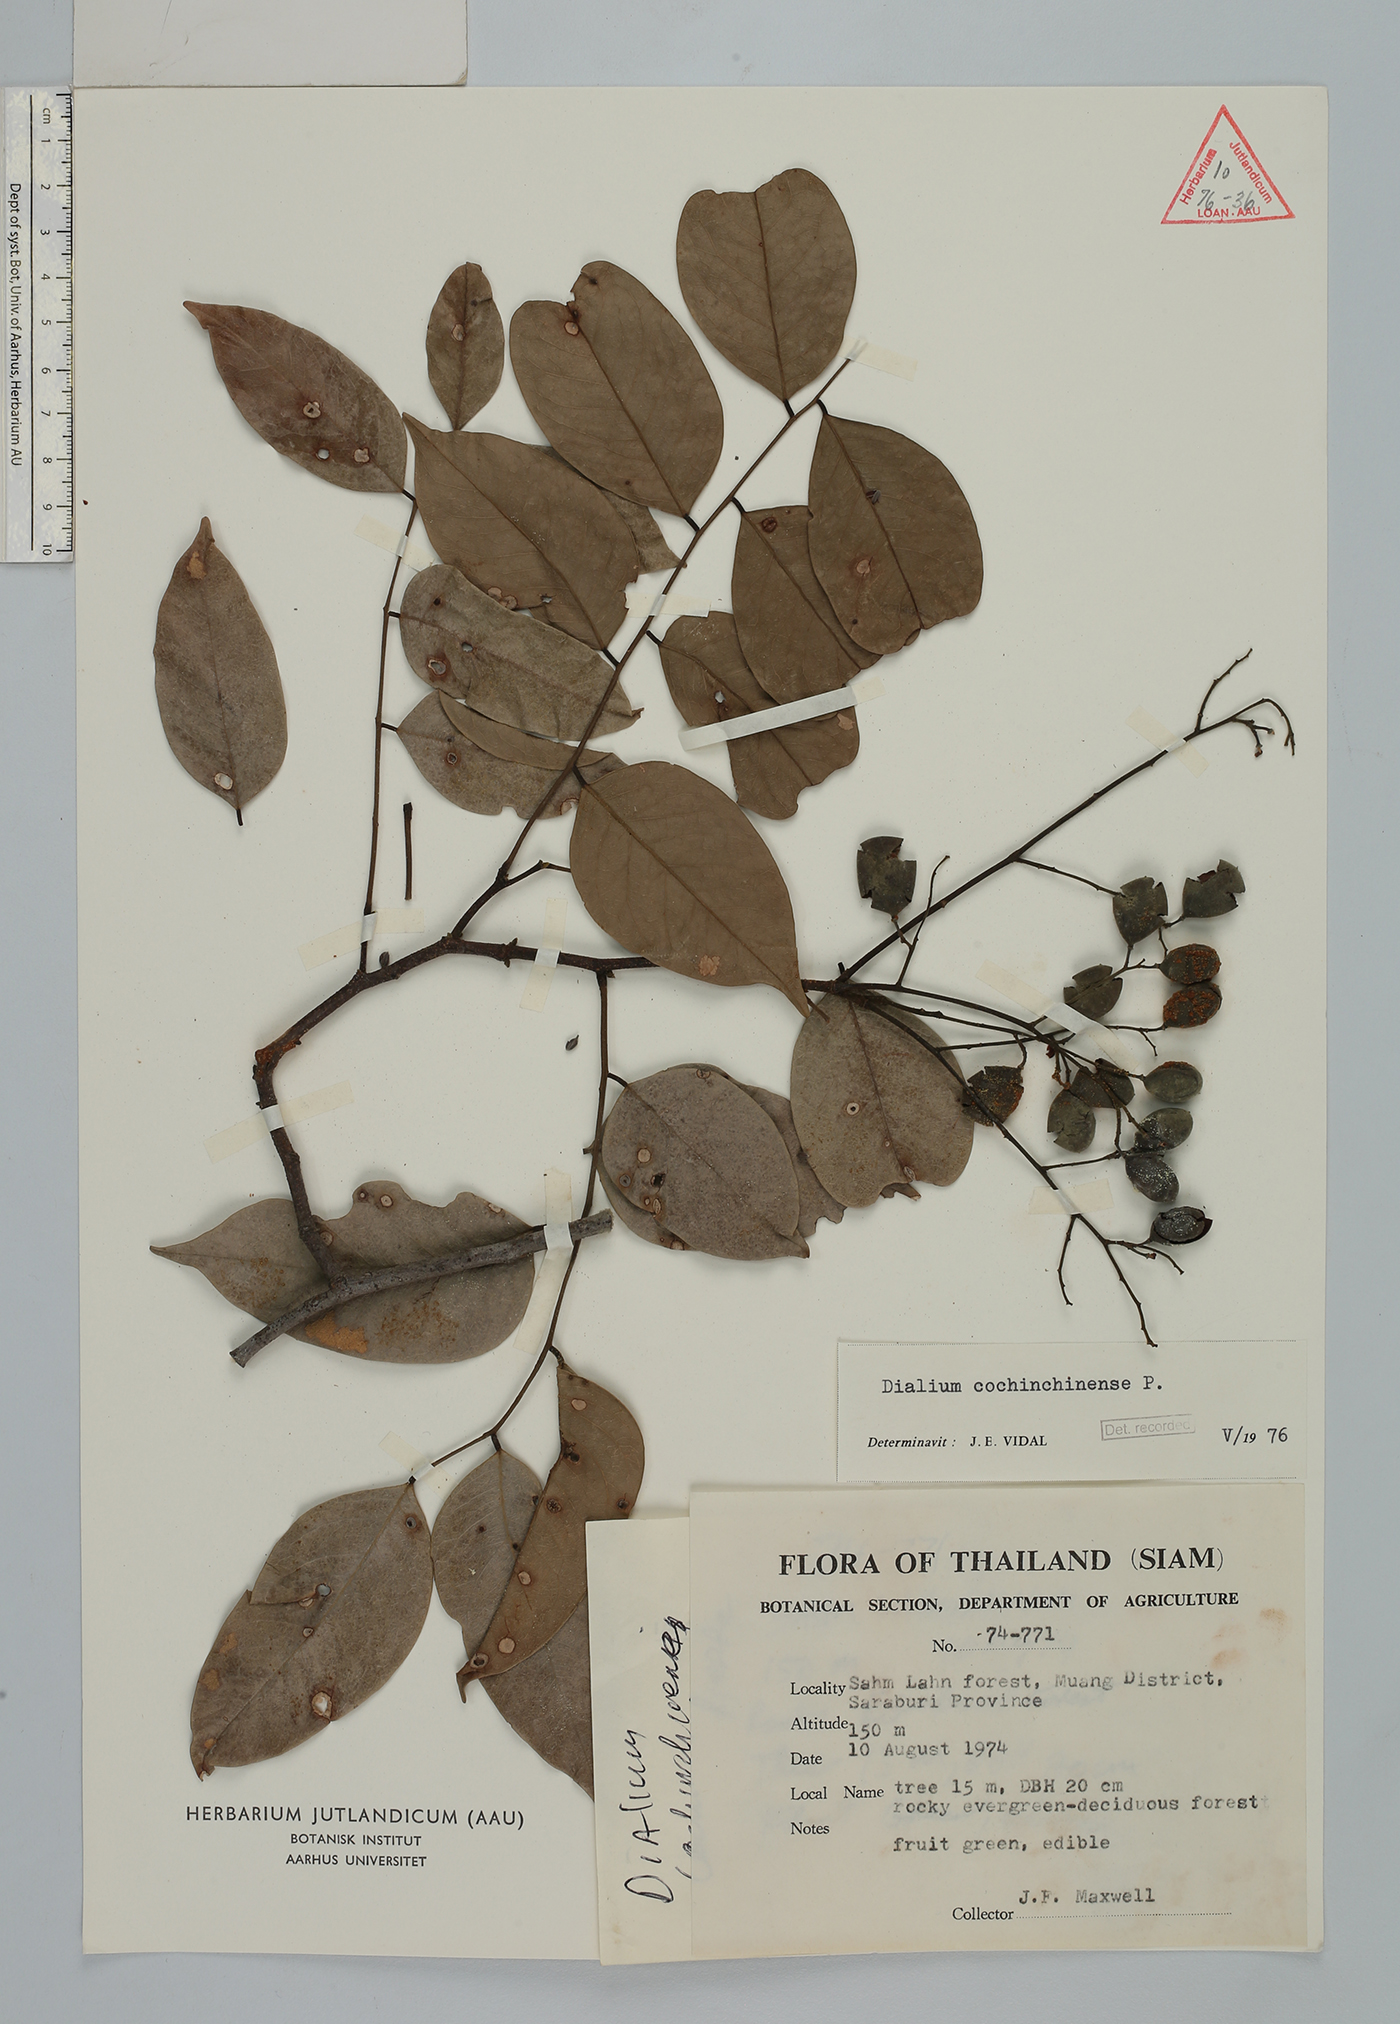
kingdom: Plantae
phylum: Tracheophyta
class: Magnoliopsida
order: Fabales
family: Fabaceae
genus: Dialium
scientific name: Dialium cochinchinense
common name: Velvet tamarind
